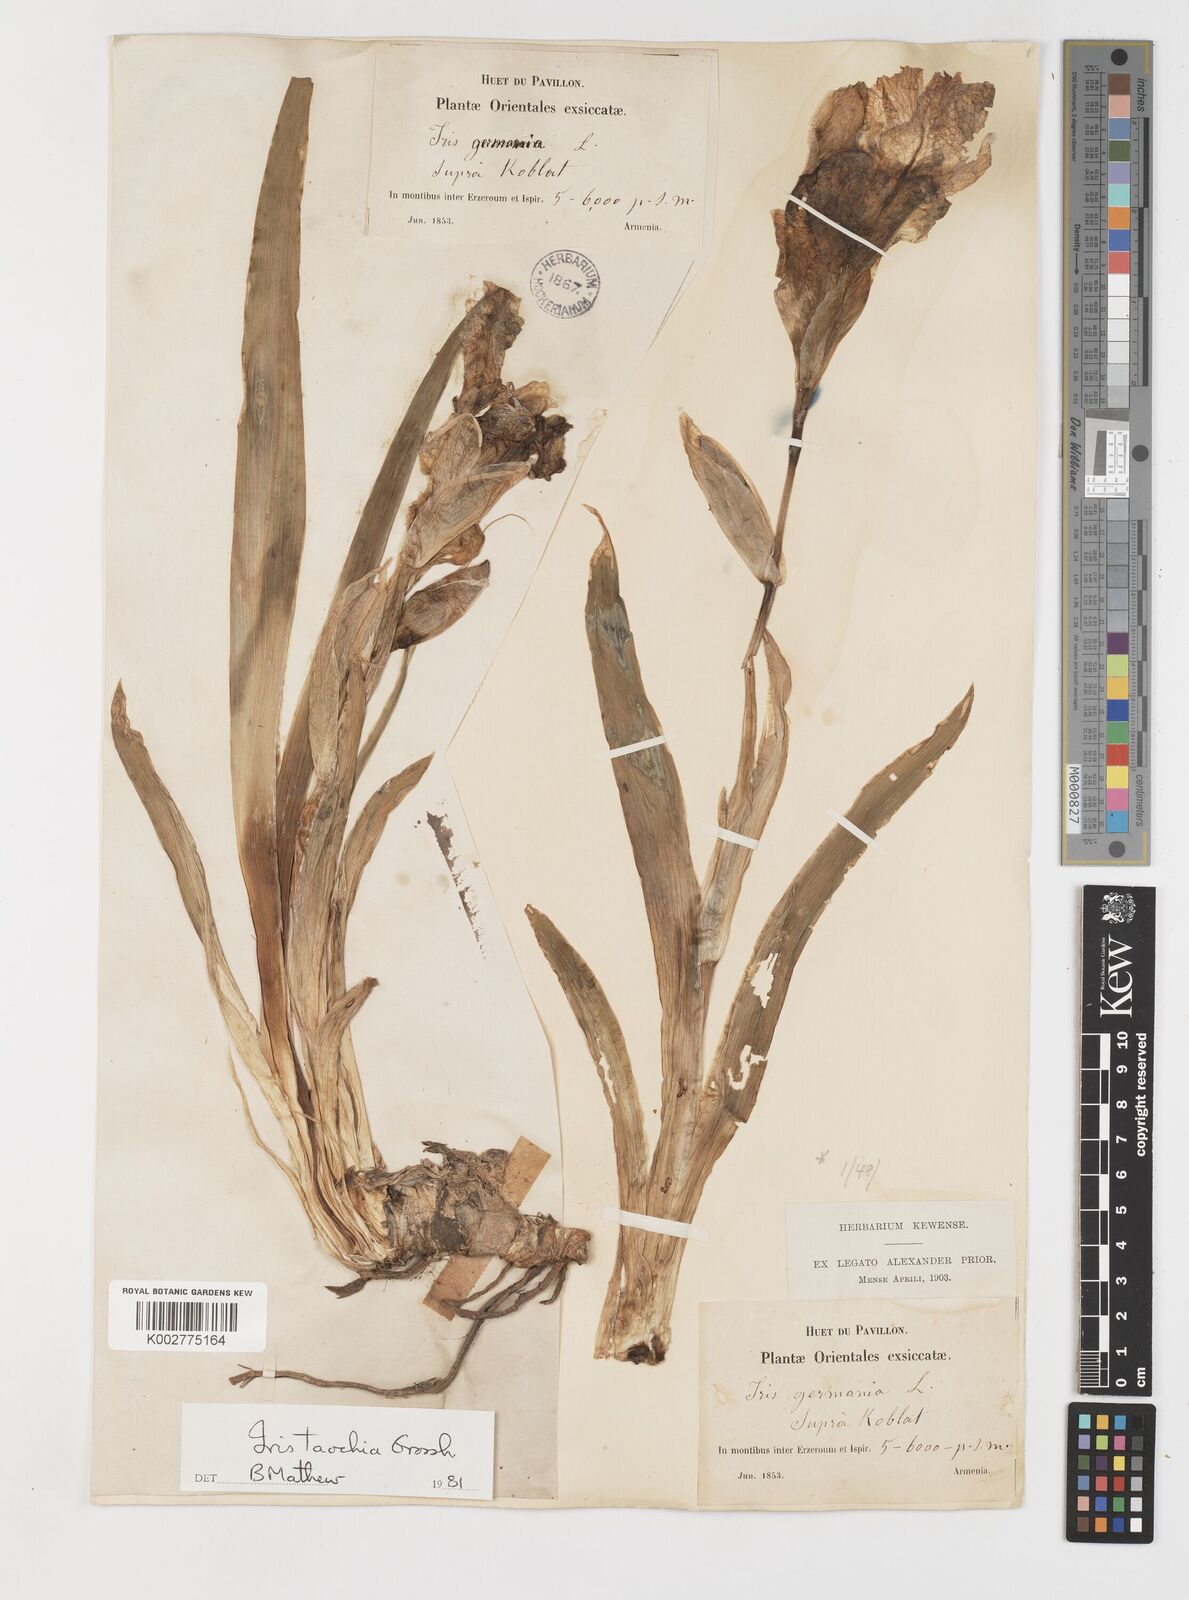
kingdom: Plantae
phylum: Tracheophyta
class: Liliopsida
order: Asparagales
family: Iridaceae
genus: Iris
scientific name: Iris taochia
